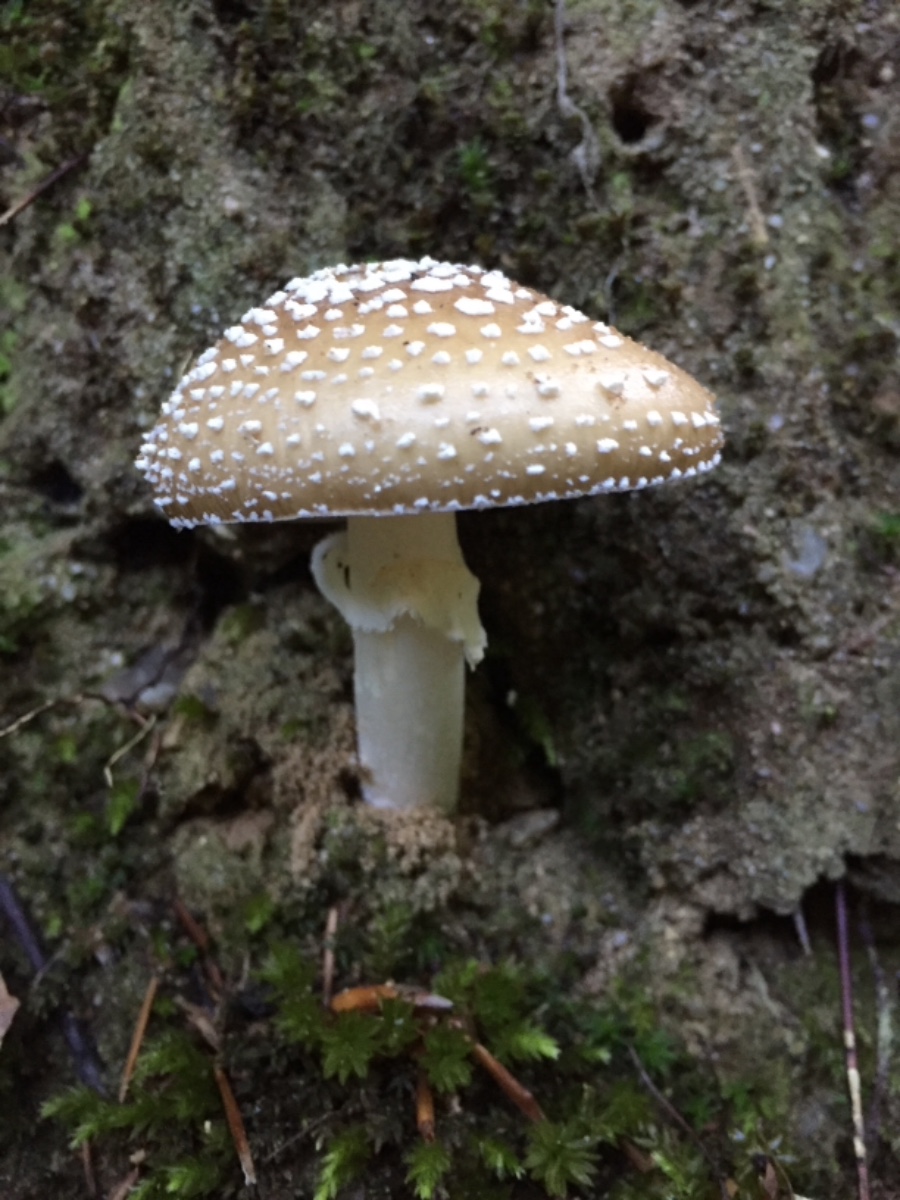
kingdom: Fungi
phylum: Basidiomycota
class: Agaricomycetes
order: Agaricales
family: Amanitaceae
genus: Amanita
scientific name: Amanita pantherina
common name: panter-fluesvamp
